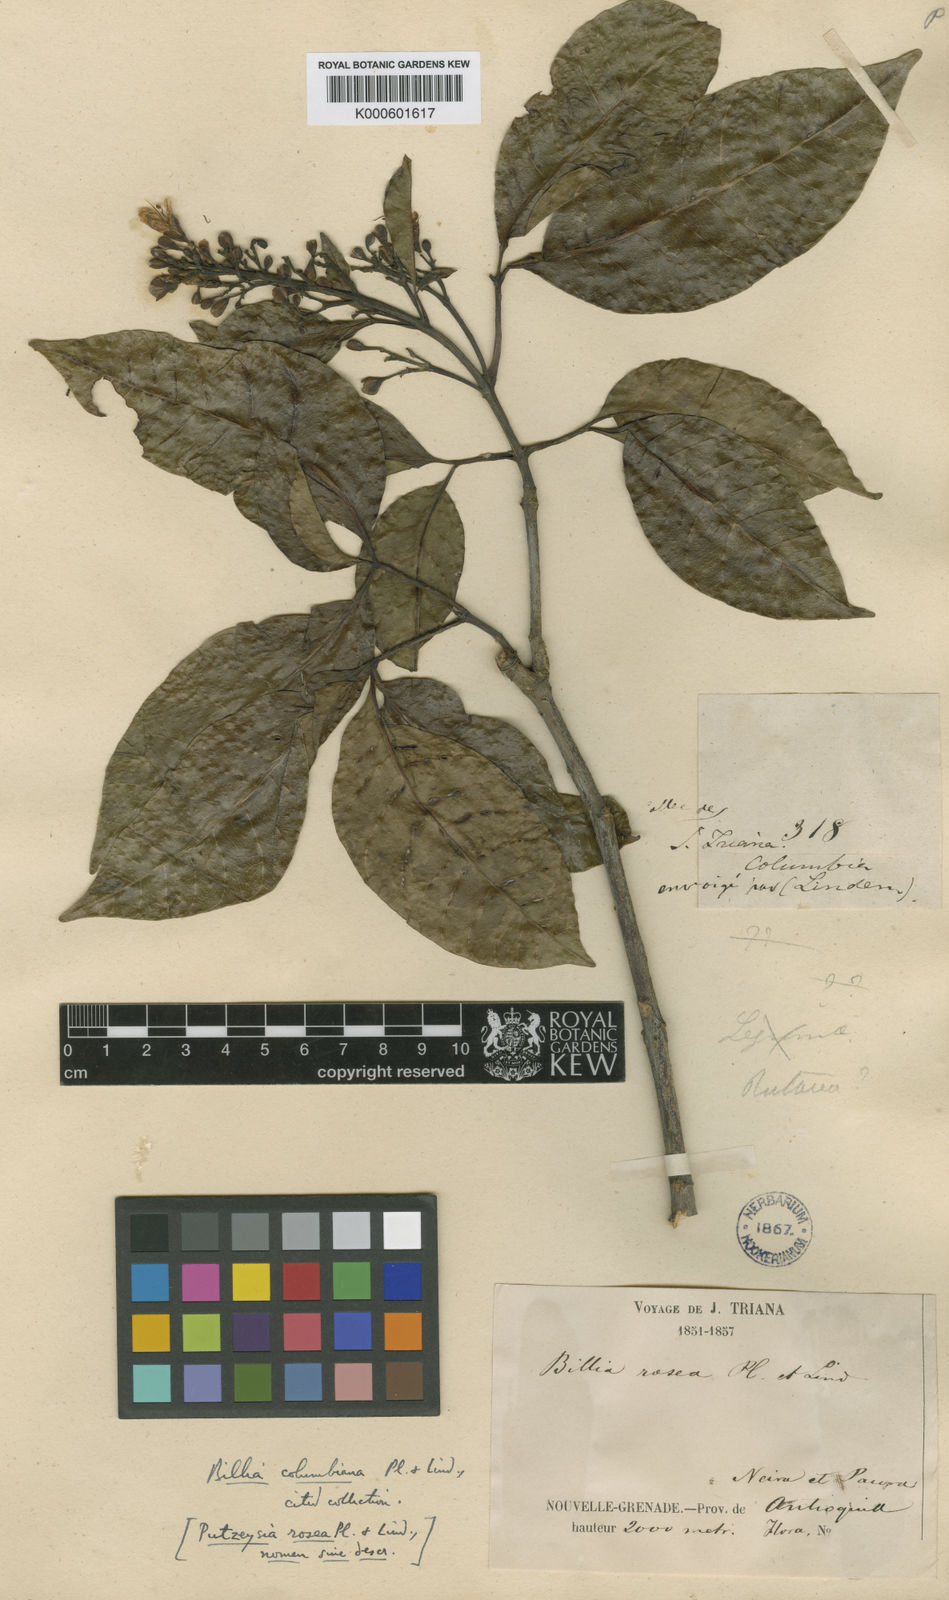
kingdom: Plantae
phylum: Tracheophyta
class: Magnoliopsida
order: Sapindales
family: Sapindaceae
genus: Billia
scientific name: Billia
